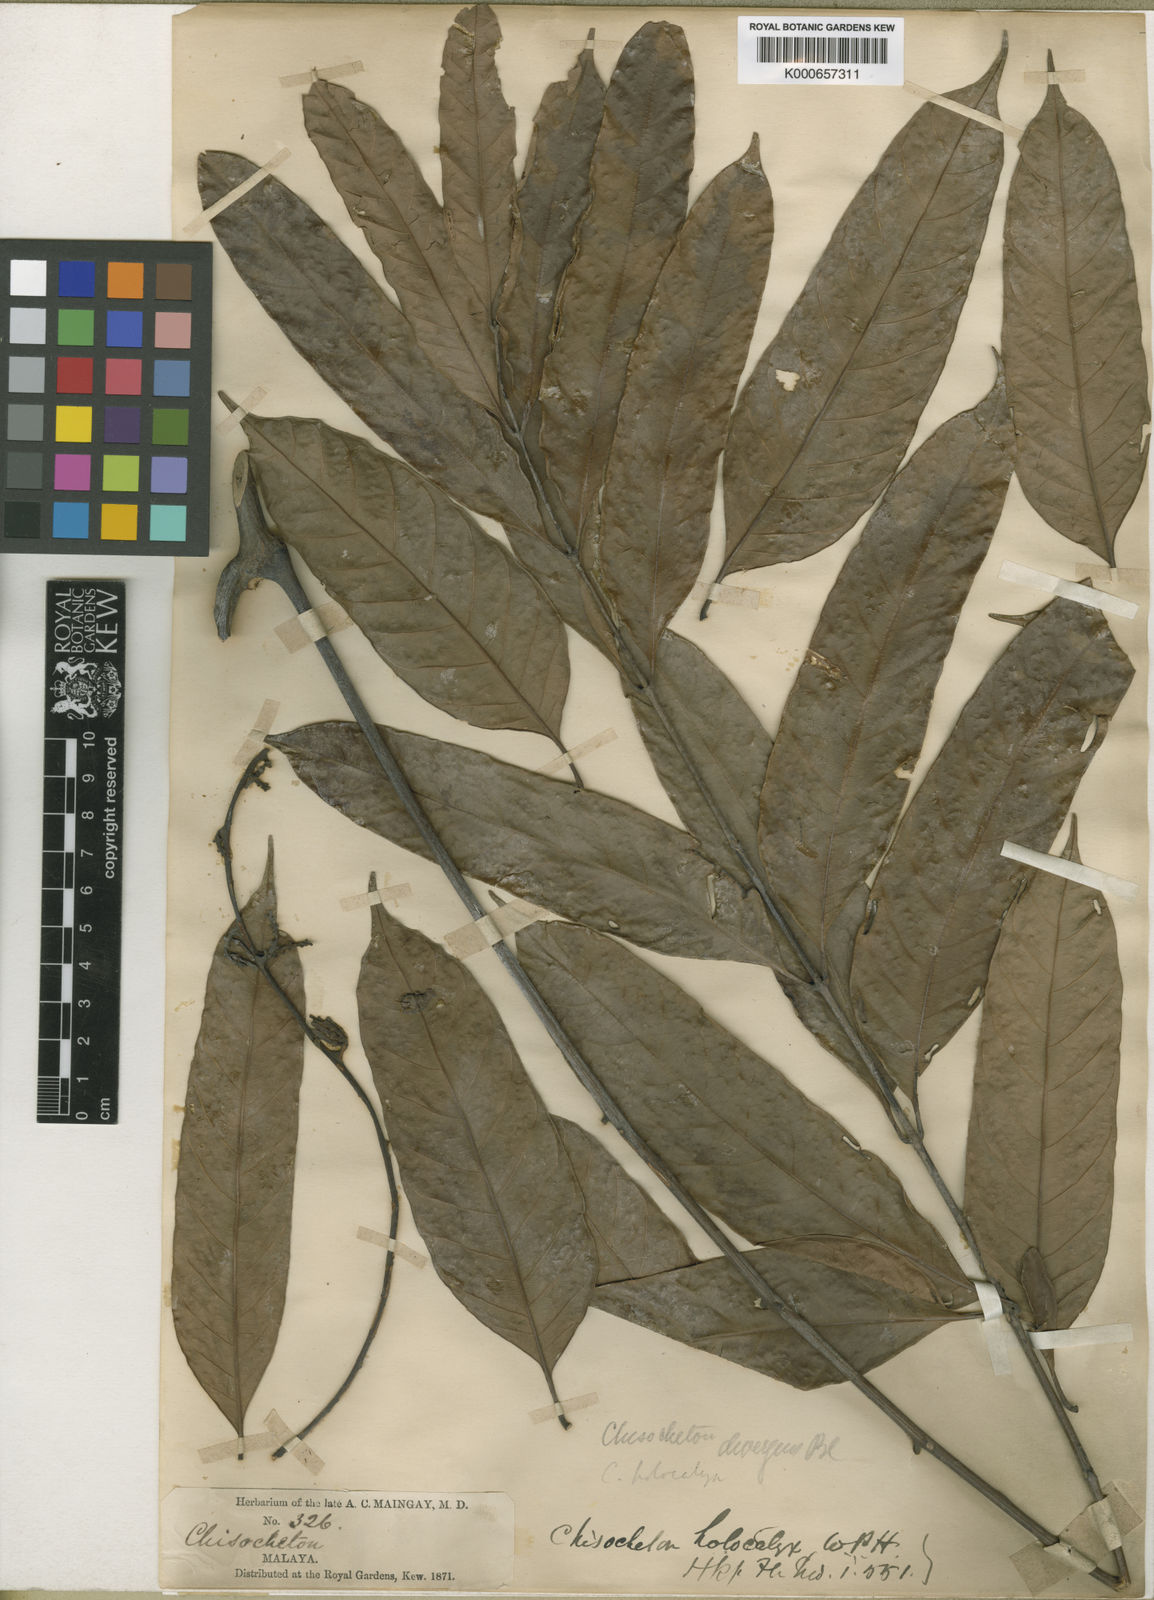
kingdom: Plantae
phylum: Tracheophyta
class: Magnoliopsida
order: Sapindales
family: Meliaceae
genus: Chisocheton
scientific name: Chisocheton patens
